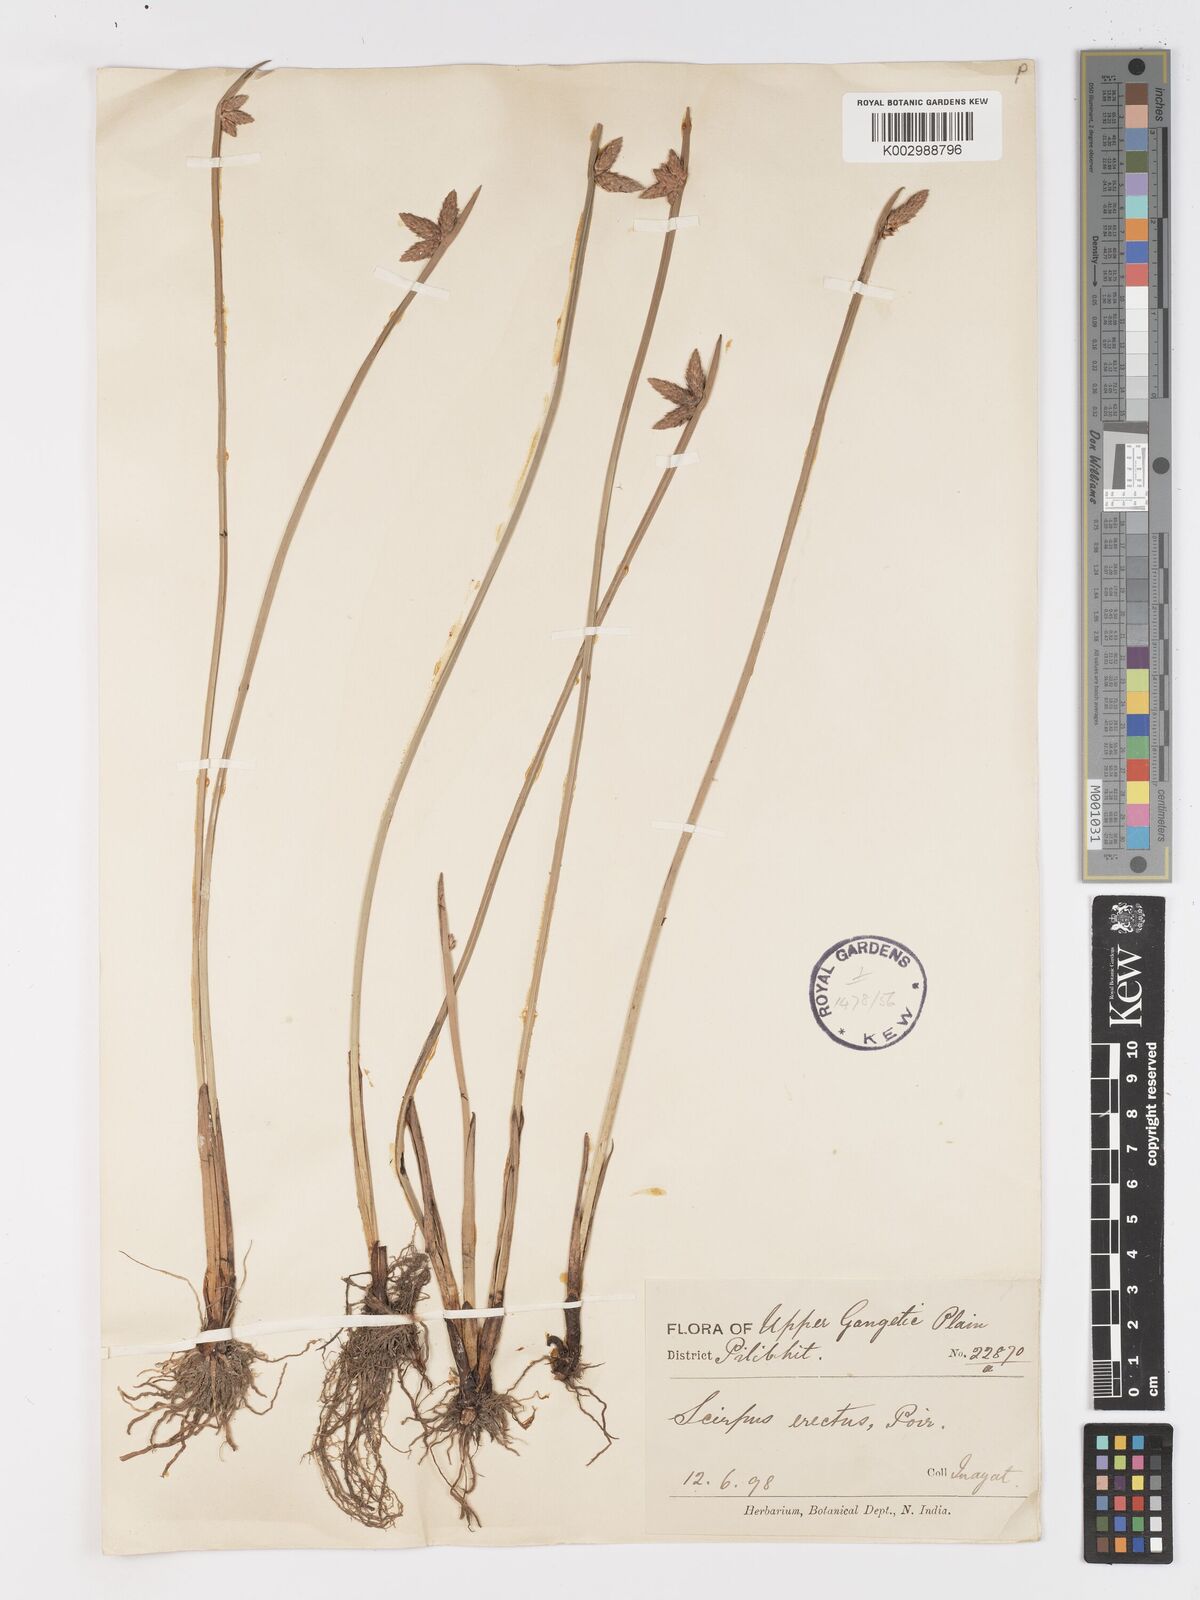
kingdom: Plantae
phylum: Tracheophyta
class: Liliopsida
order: Poales
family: Cyperaceae
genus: Schoenoplectiella
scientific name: Schoenoplectiella mucronata
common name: Bog bulrush
